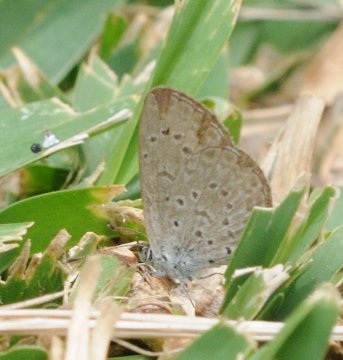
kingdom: Animalia
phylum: Arthropoda
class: Insecta
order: Lepidoptera
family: Lycaenidae
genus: Zizeeria
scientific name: Zizeeria knysna
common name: Dark Grass Blue
